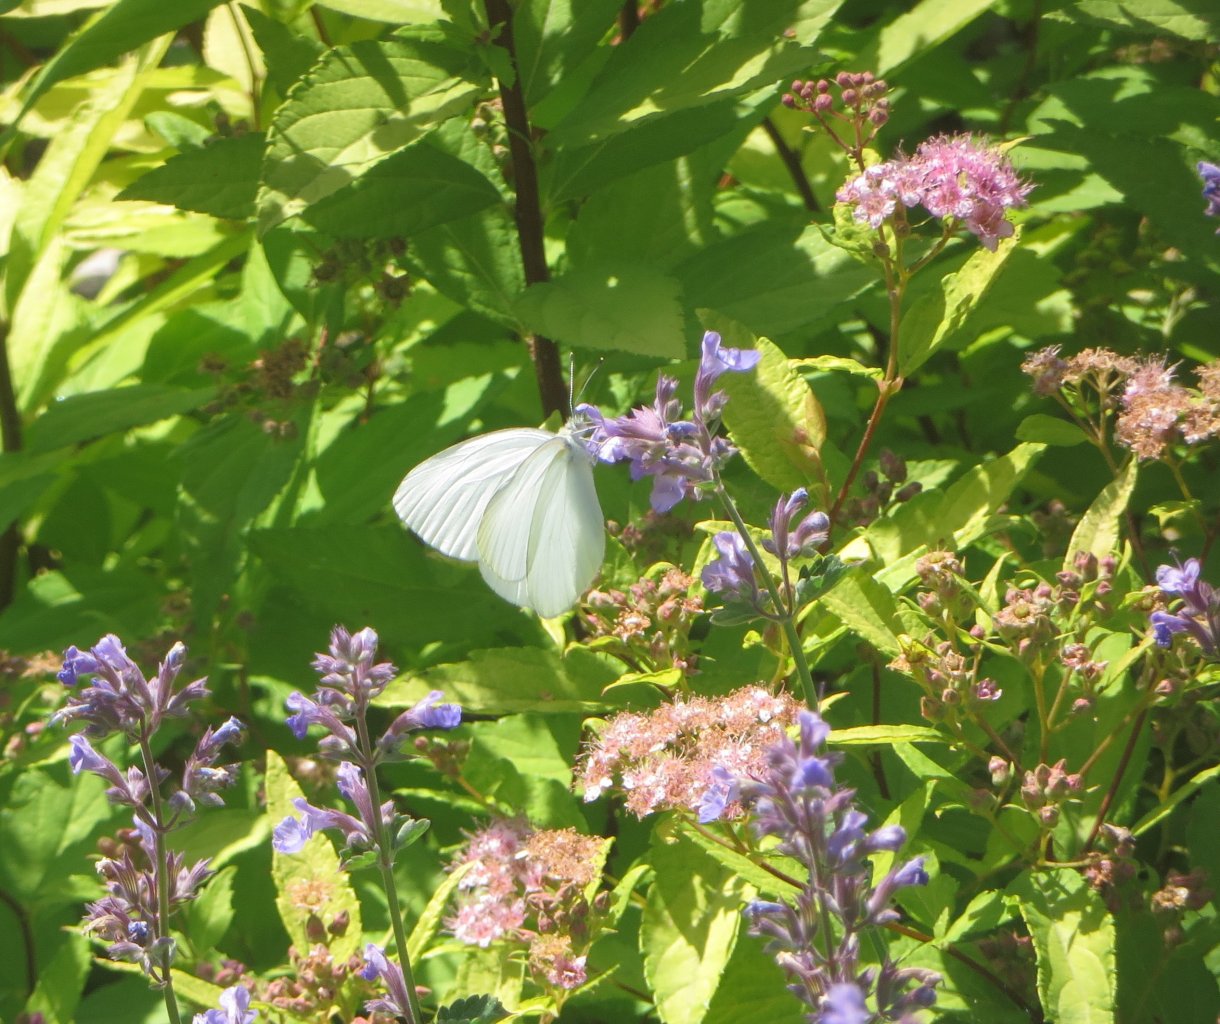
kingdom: Animalia
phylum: Arthropoda
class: Insecta
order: Lepidoptera
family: Pieridae
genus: Pieris
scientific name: Pieris oleracea
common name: Mustard White
